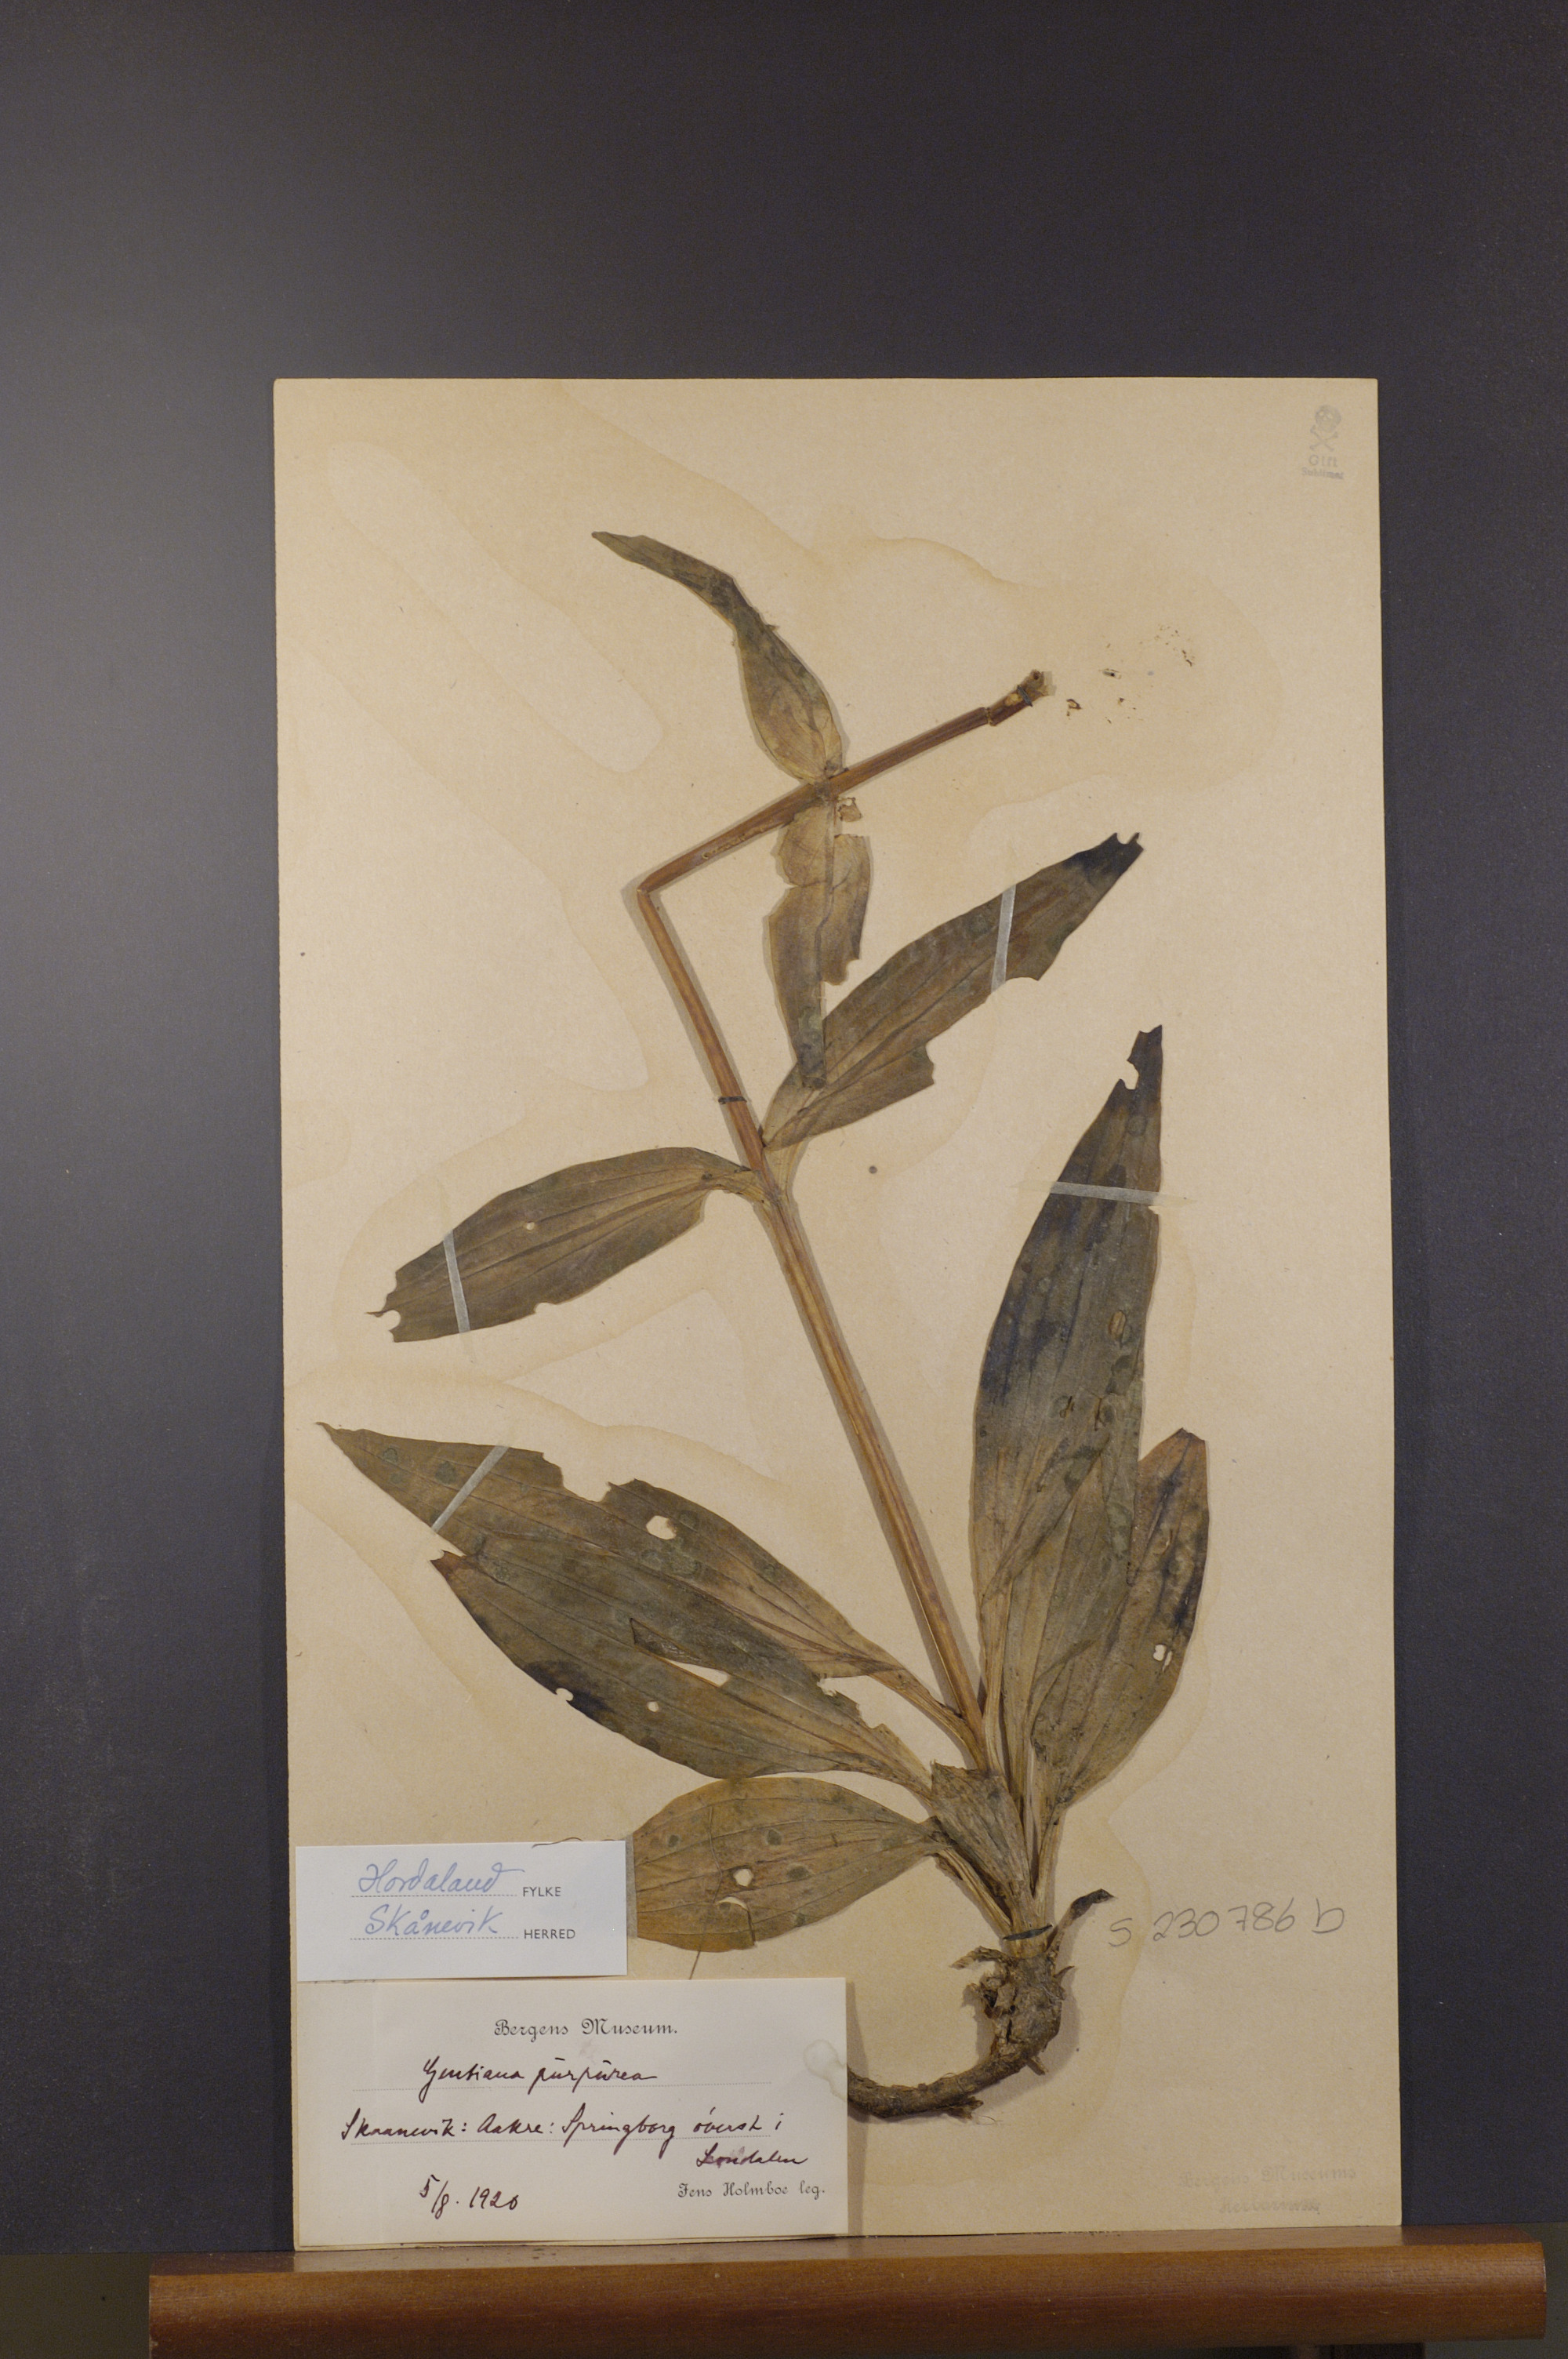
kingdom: Plantae
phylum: Tracheophyta
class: Magnoliopsida
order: Gentianales
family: Gentianaceae
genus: Gentiana
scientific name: Gentiana purpurea
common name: Purple gentian
